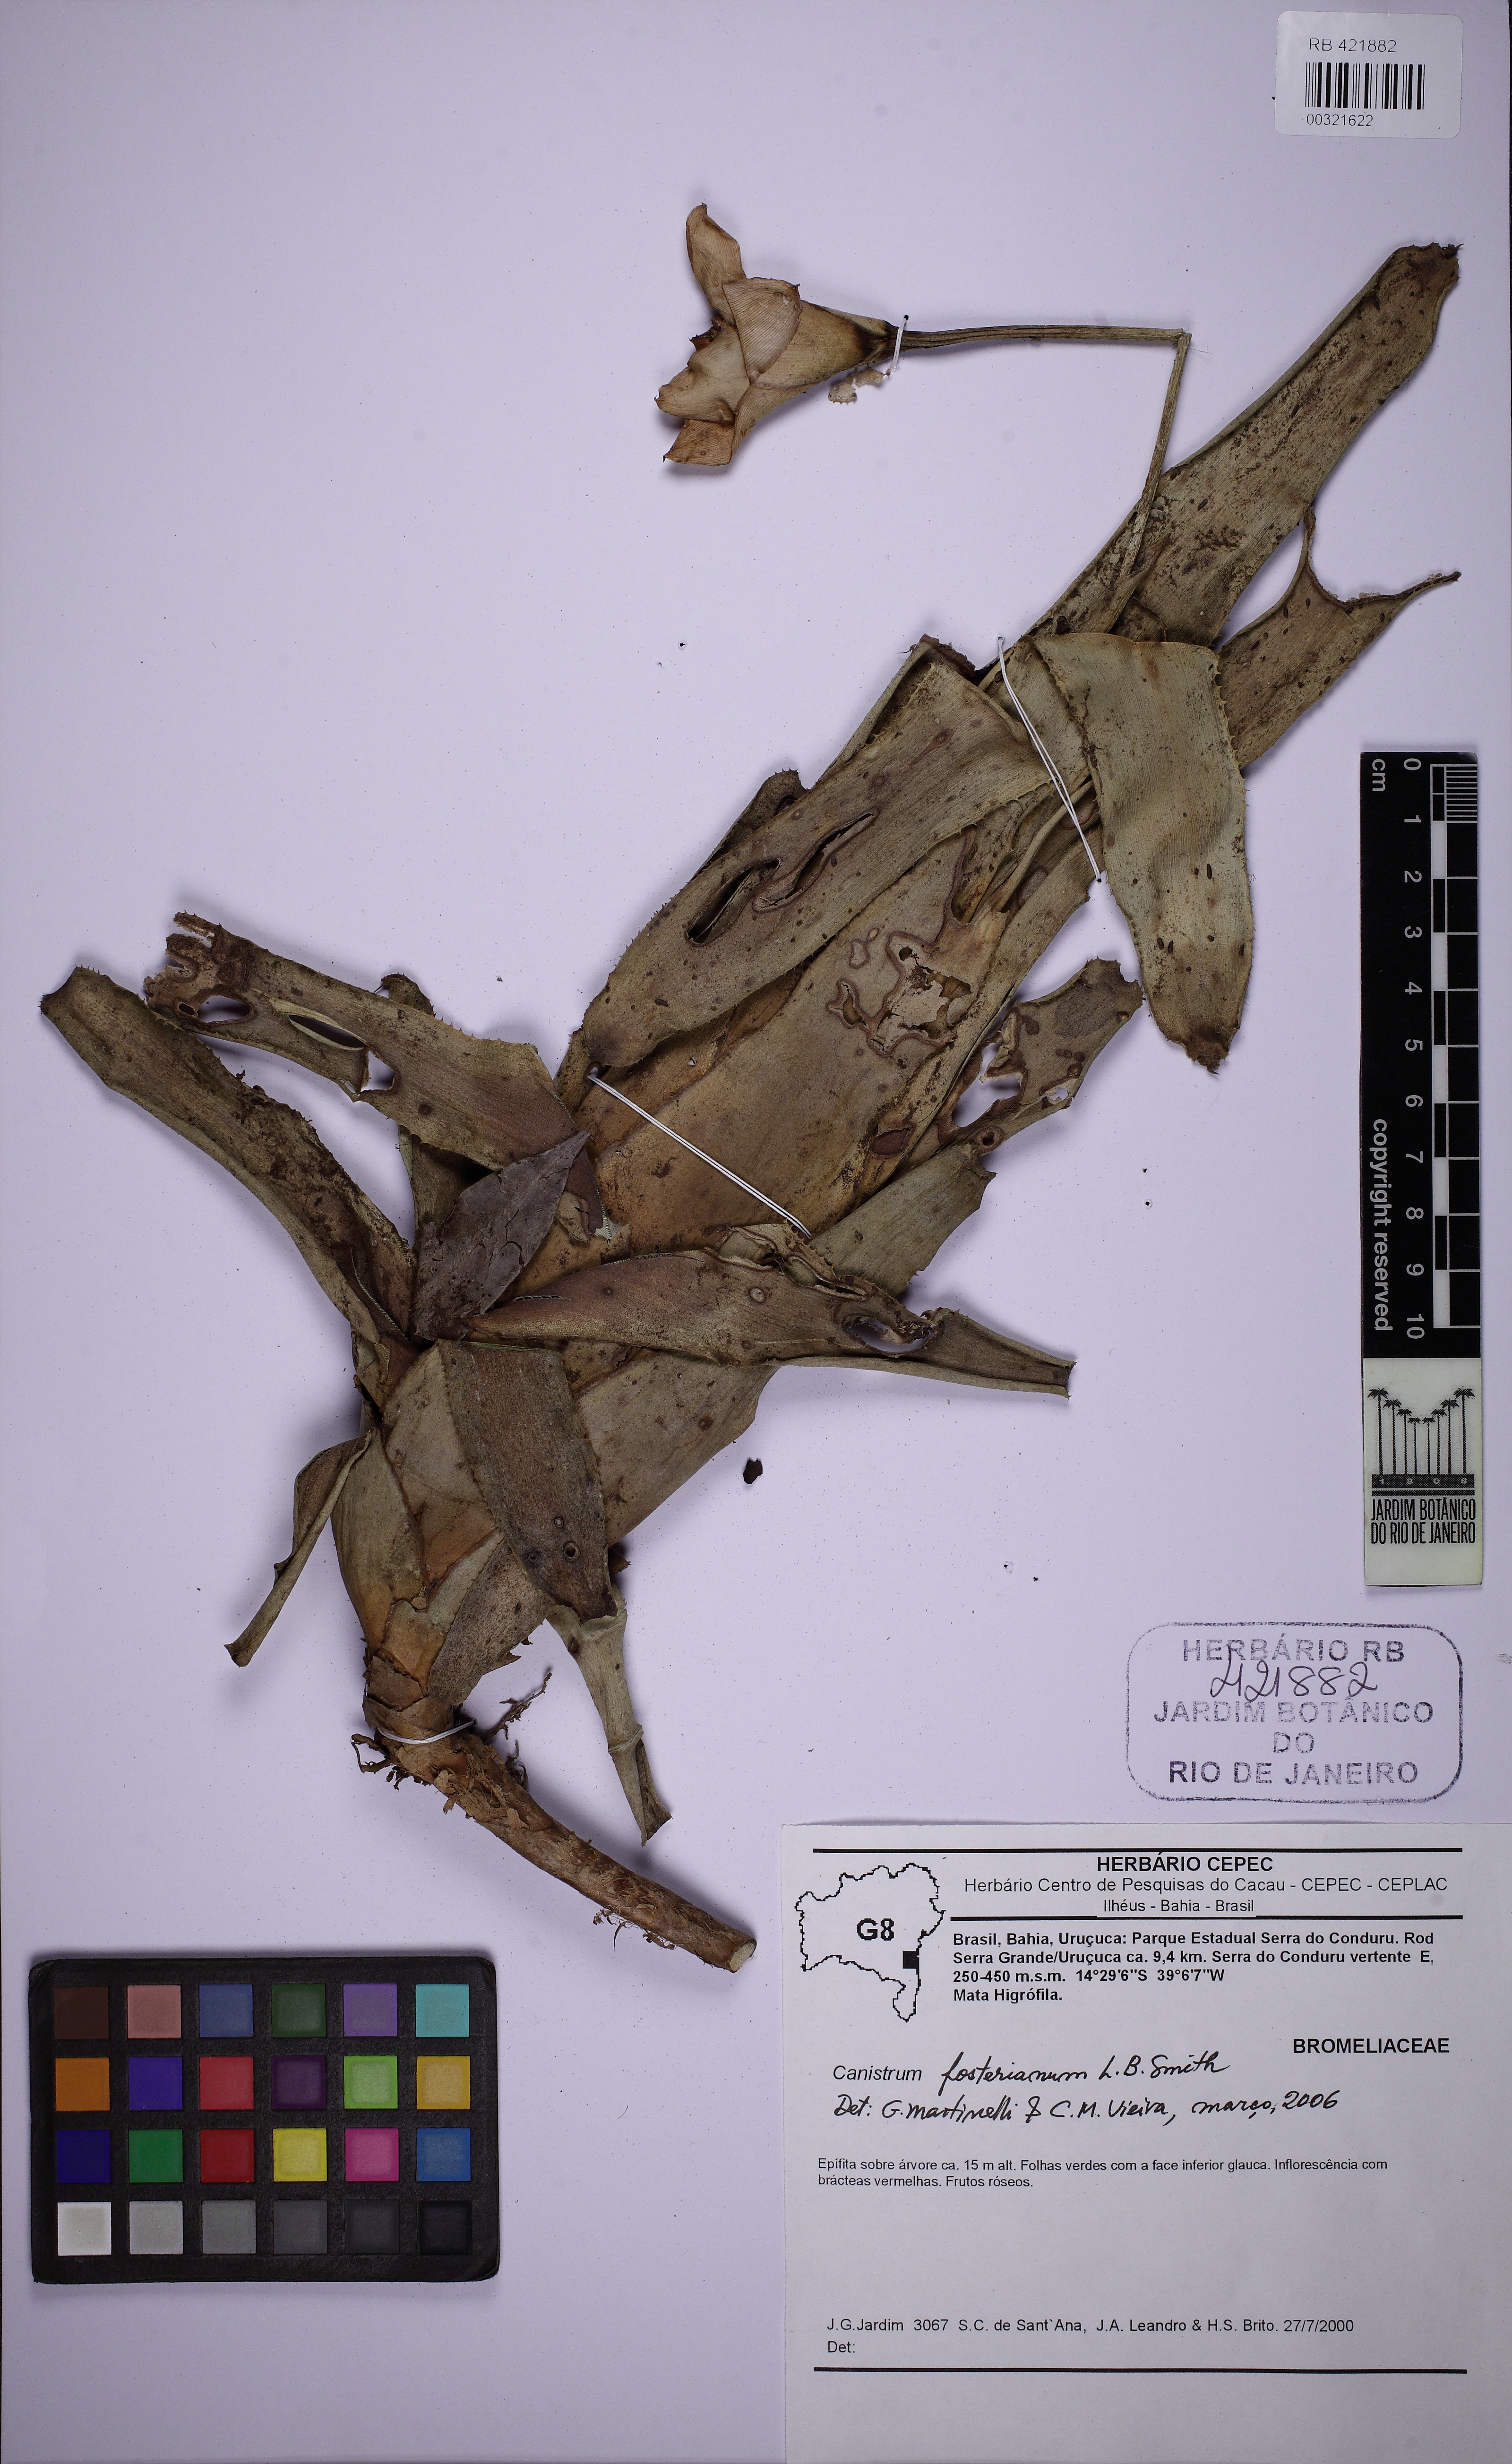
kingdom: Plantae
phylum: Tracheophyta
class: Liliopsida
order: Poales
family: Bromeliaceae
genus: Canistrum
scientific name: Canistrum montanum
